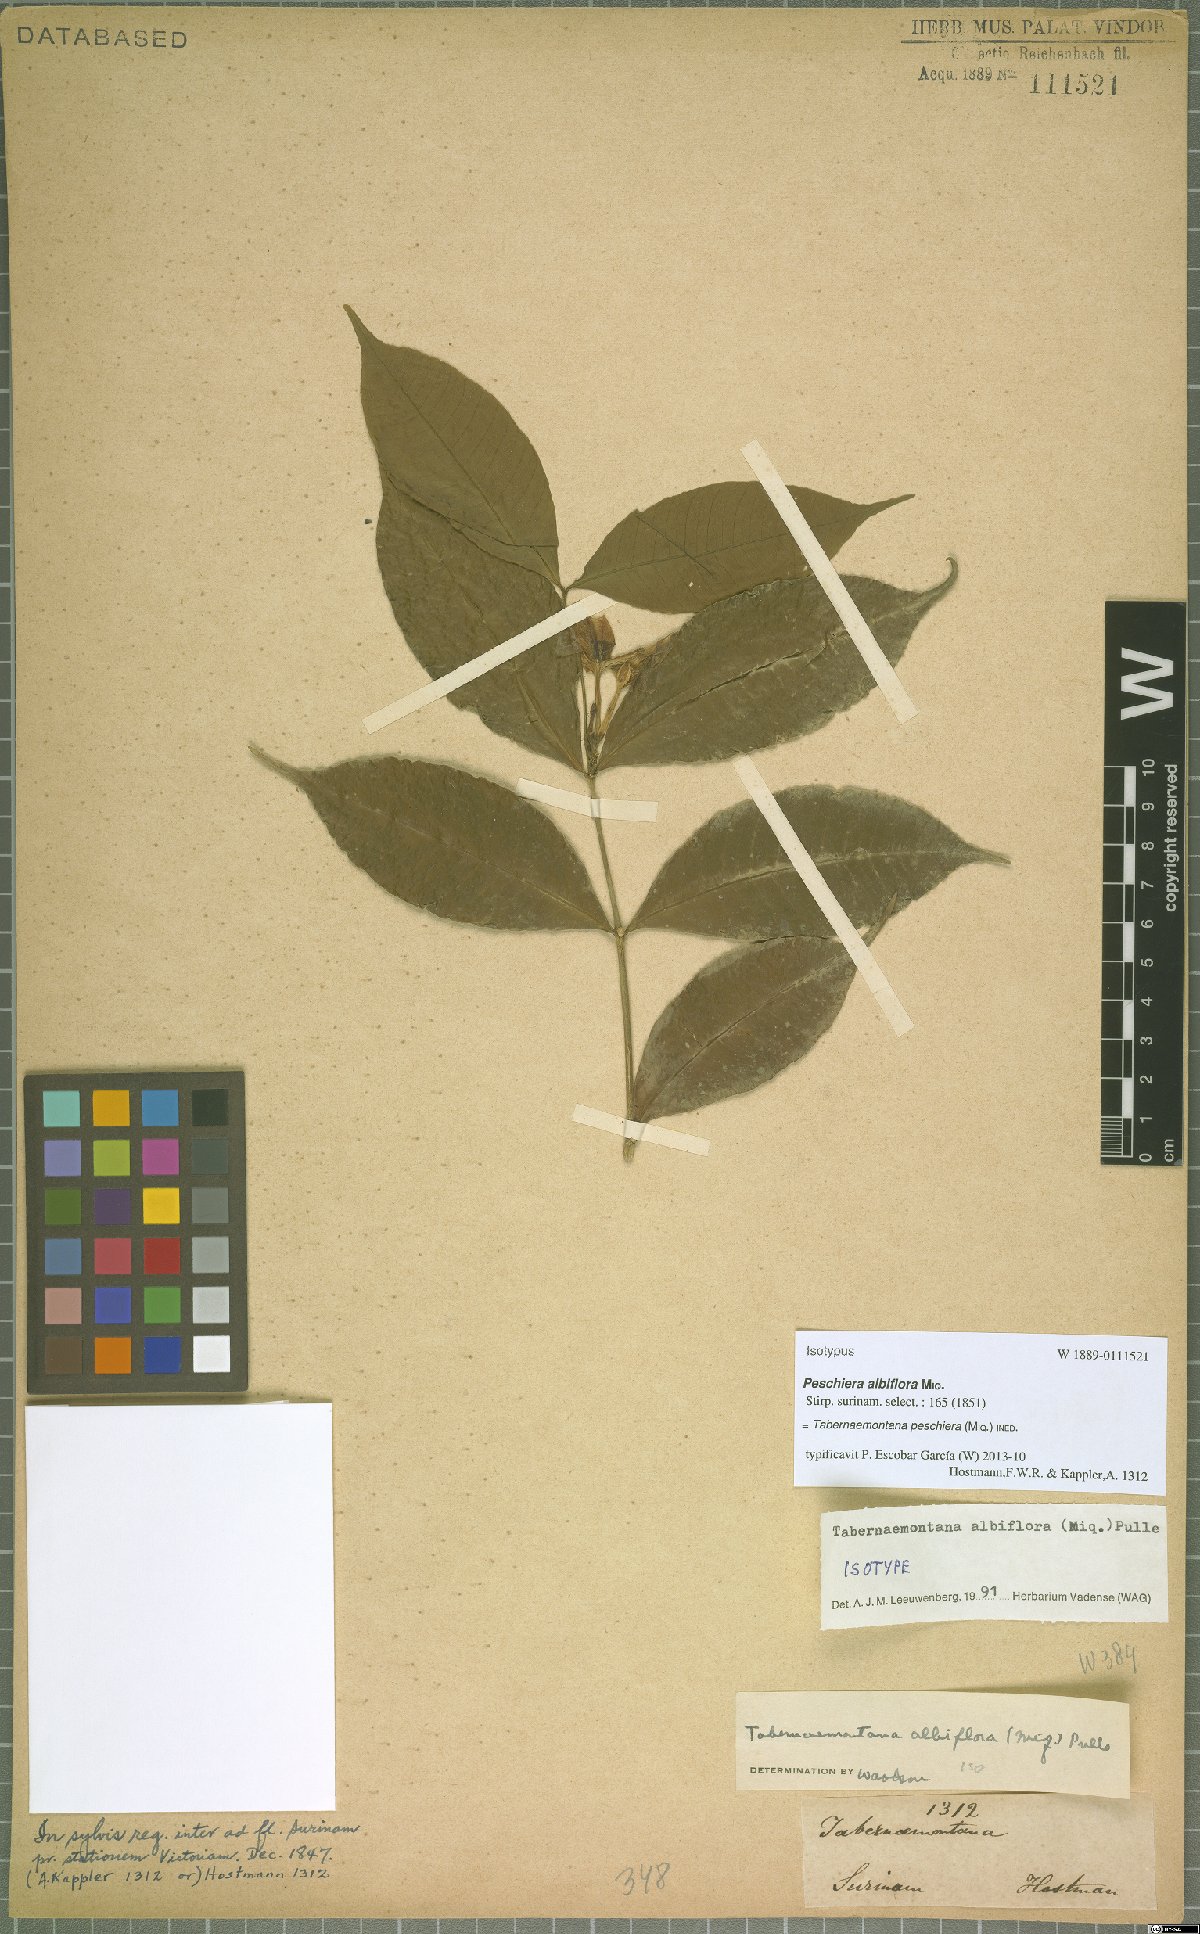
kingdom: Plantae
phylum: Tracheophyta
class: Magnoliopsida
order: Gentianales
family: Apocynaceae
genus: Tabernaemontana
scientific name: Tabernaemontana peschiera
